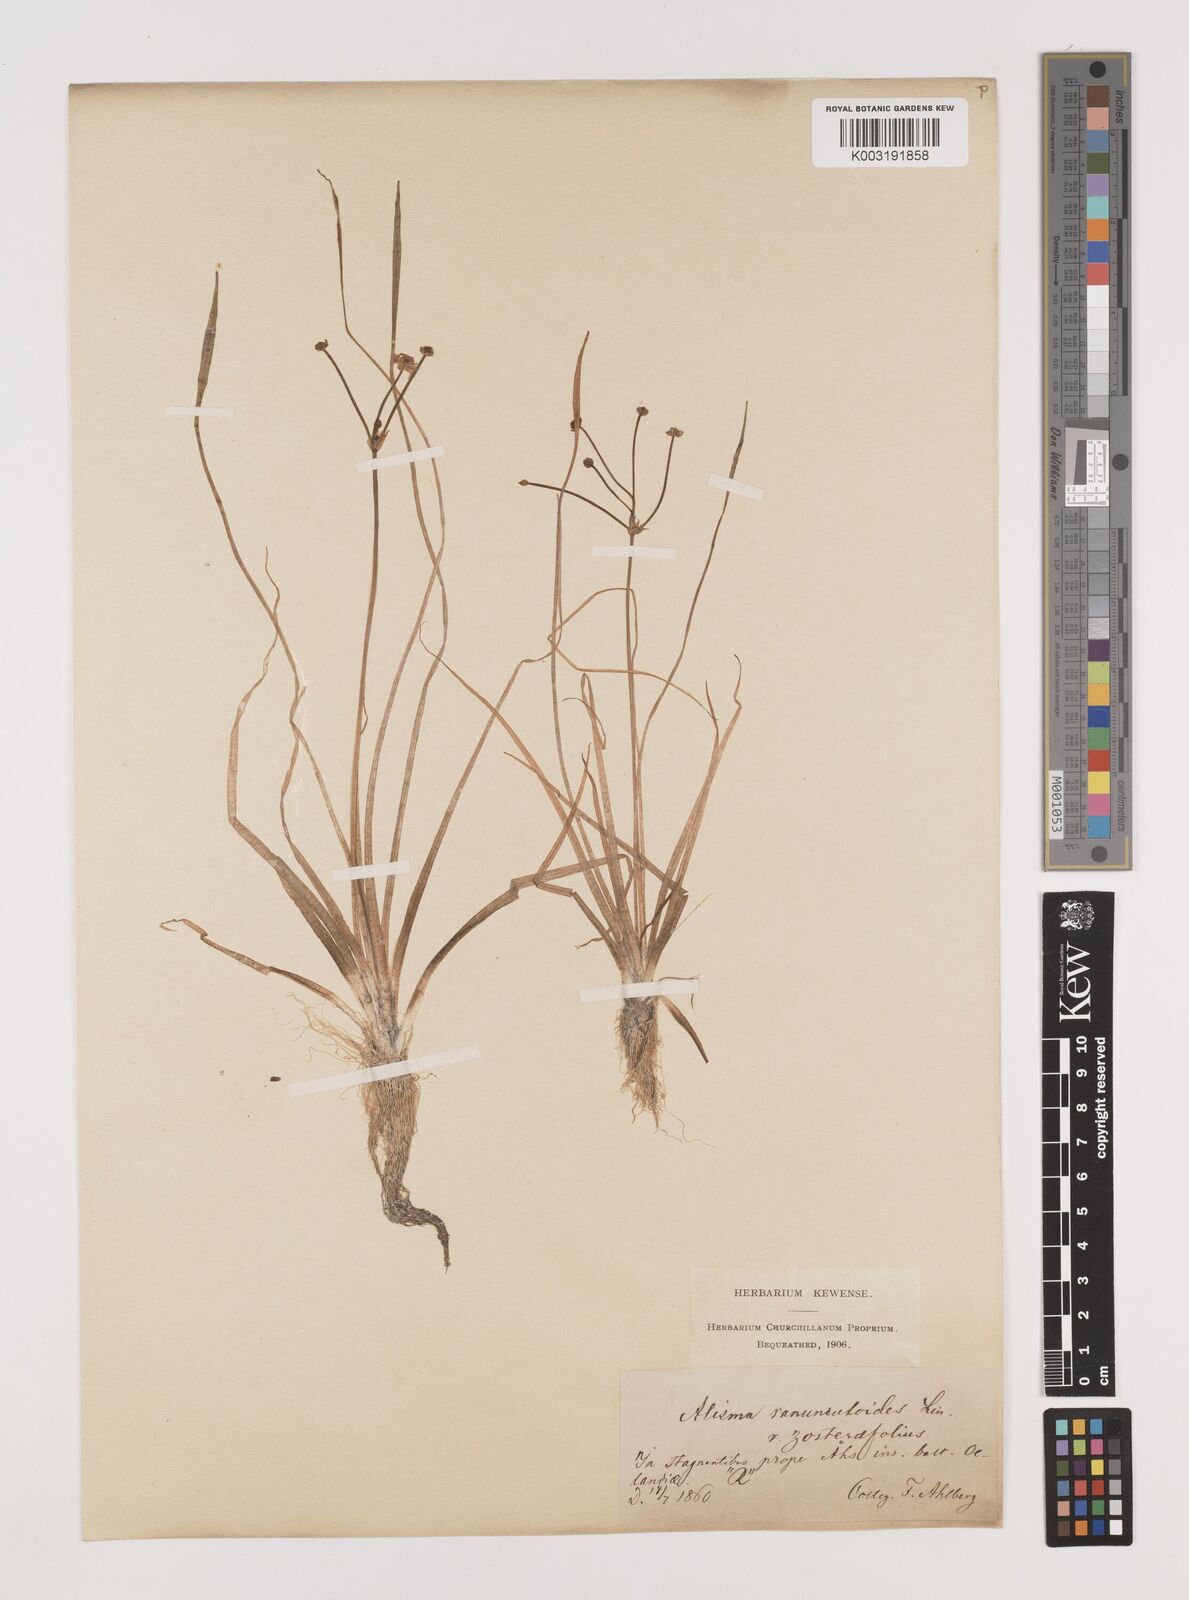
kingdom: Plantae
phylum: Tracheophyta
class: Liliopsida
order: Alismatales
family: Alismataceae
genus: Baldellia
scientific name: Baldellia ranunculoides
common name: Lesser water-plantain
